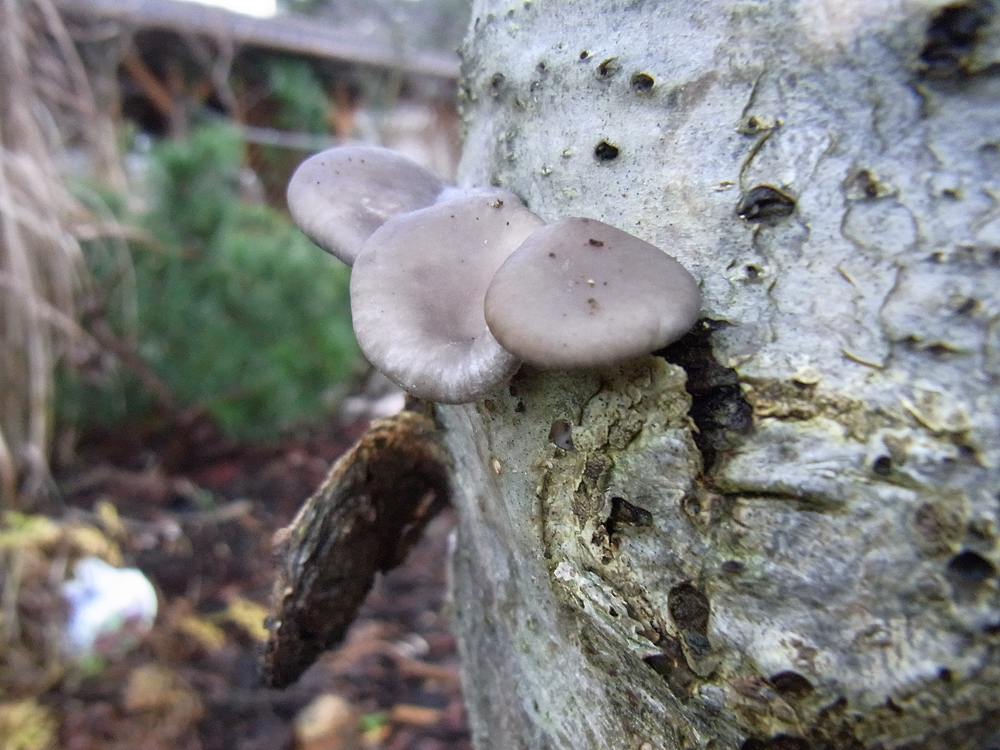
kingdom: Fungi
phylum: Basidiomycota
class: Agaricomycetes
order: Agaricales
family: Pleurotaceae
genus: Pleurotus
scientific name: Pleurotus ostreatus
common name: Oyster mushroom
